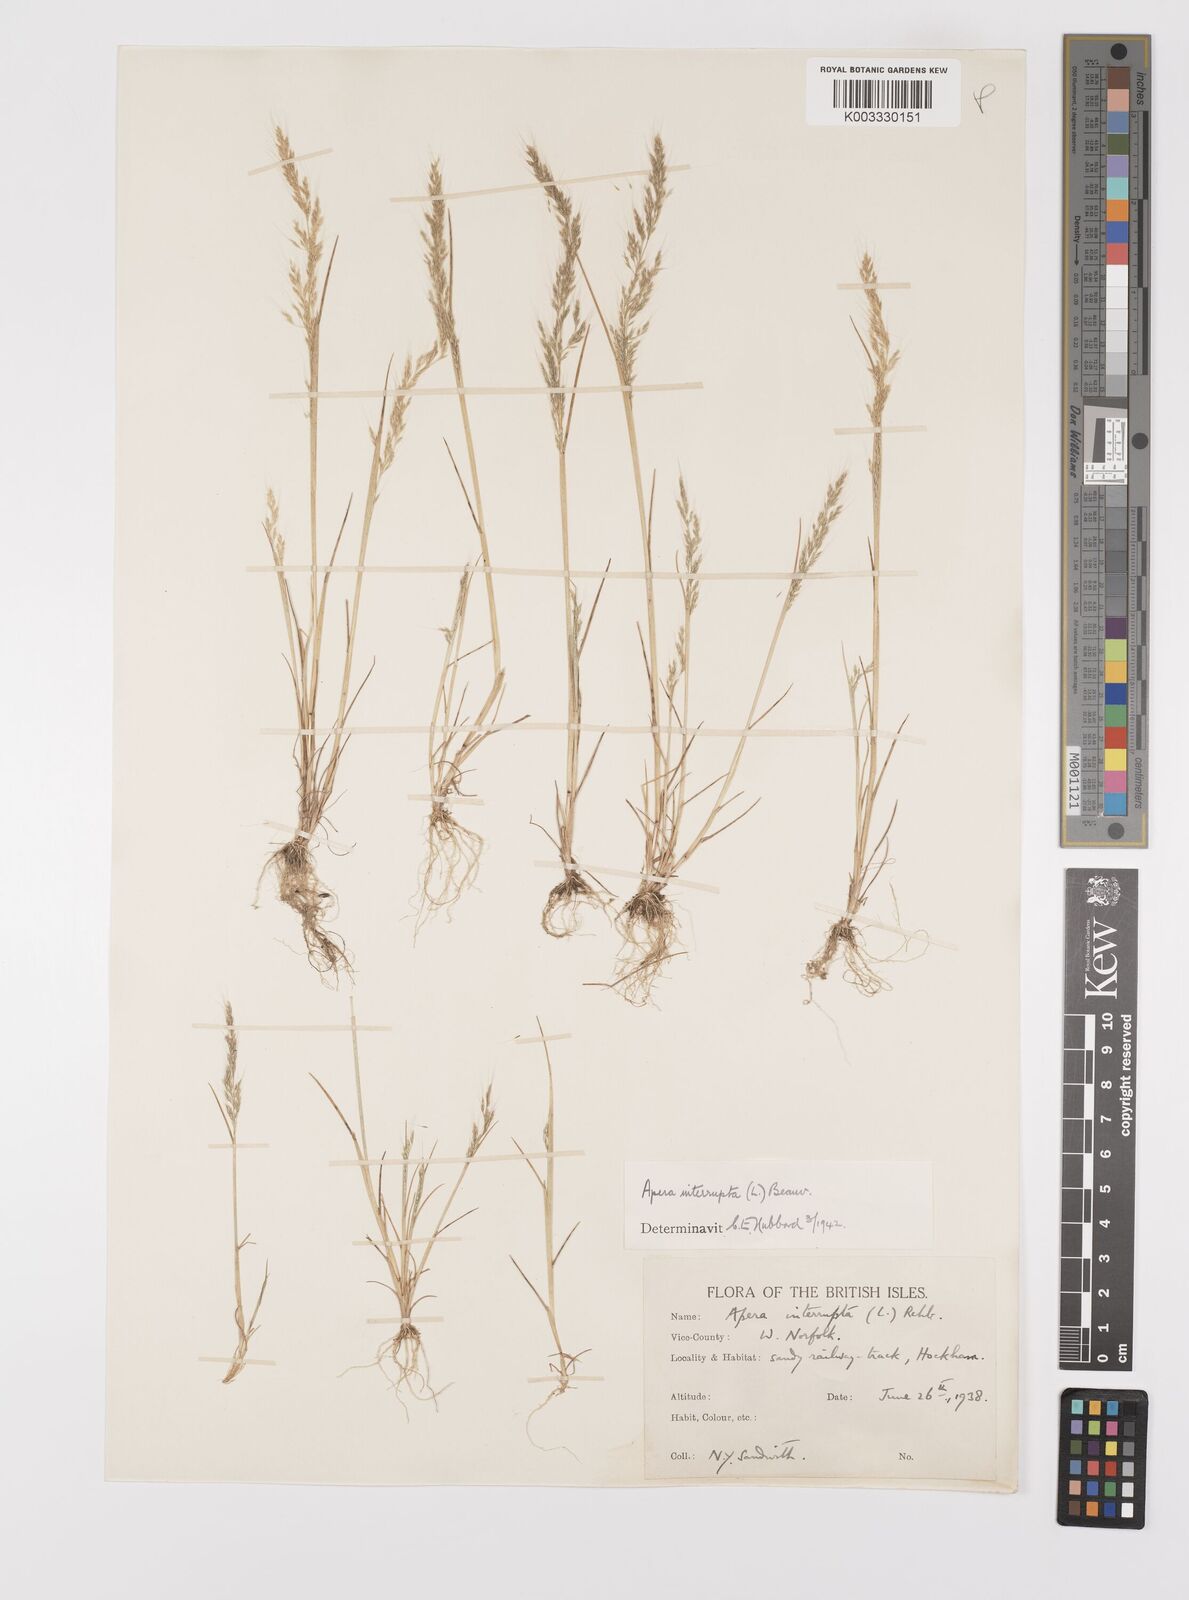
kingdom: Plantae
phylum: Tracheophyta
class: Liliopsida
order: Poales
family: Poaceae
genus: Apera
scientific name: Apera interrupta
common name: Dense silky-bent
